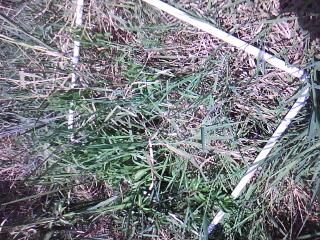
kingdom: Plantae
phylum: Tracheophyta
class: Liliopsida
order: Poales
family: Poaceae
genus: Leersia
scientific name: Leersia oryzoides
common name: Cut-grass
